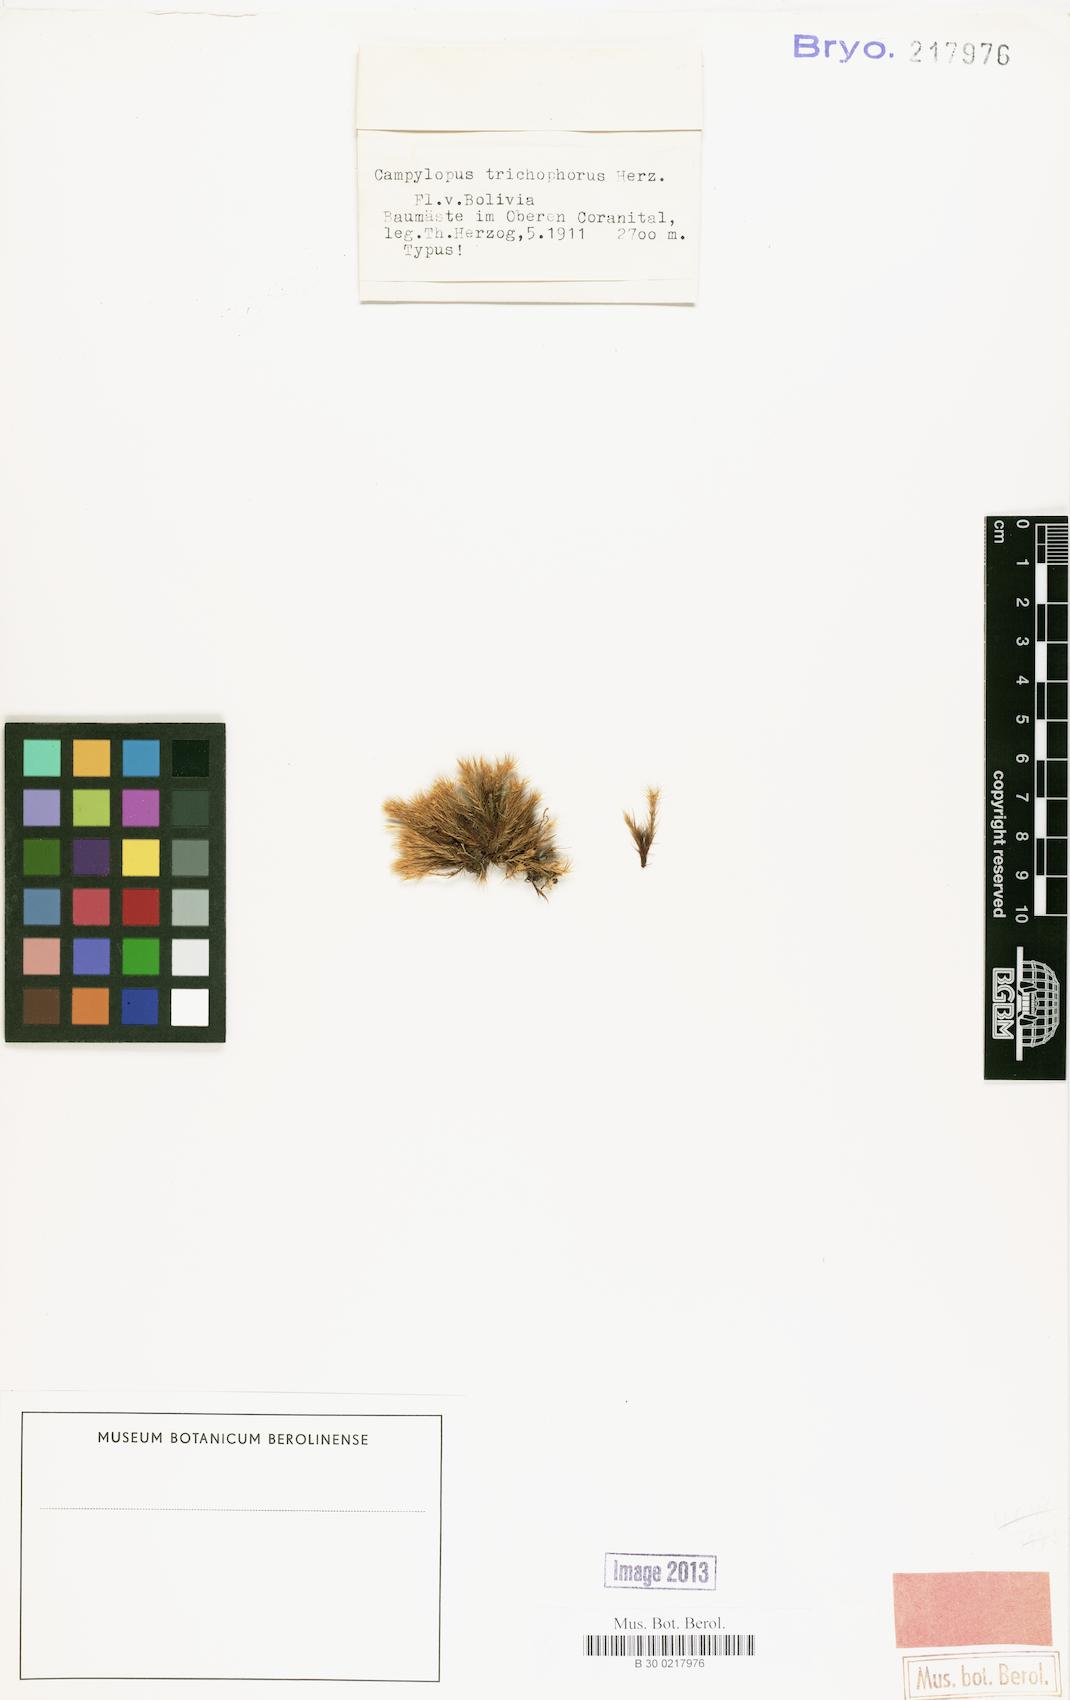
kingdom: Plantae
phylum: Bryophyta
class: Bryopsida
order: Dicranales
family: Leucobryaceae
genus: Campylopus
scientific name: Campylopus asperifolius
